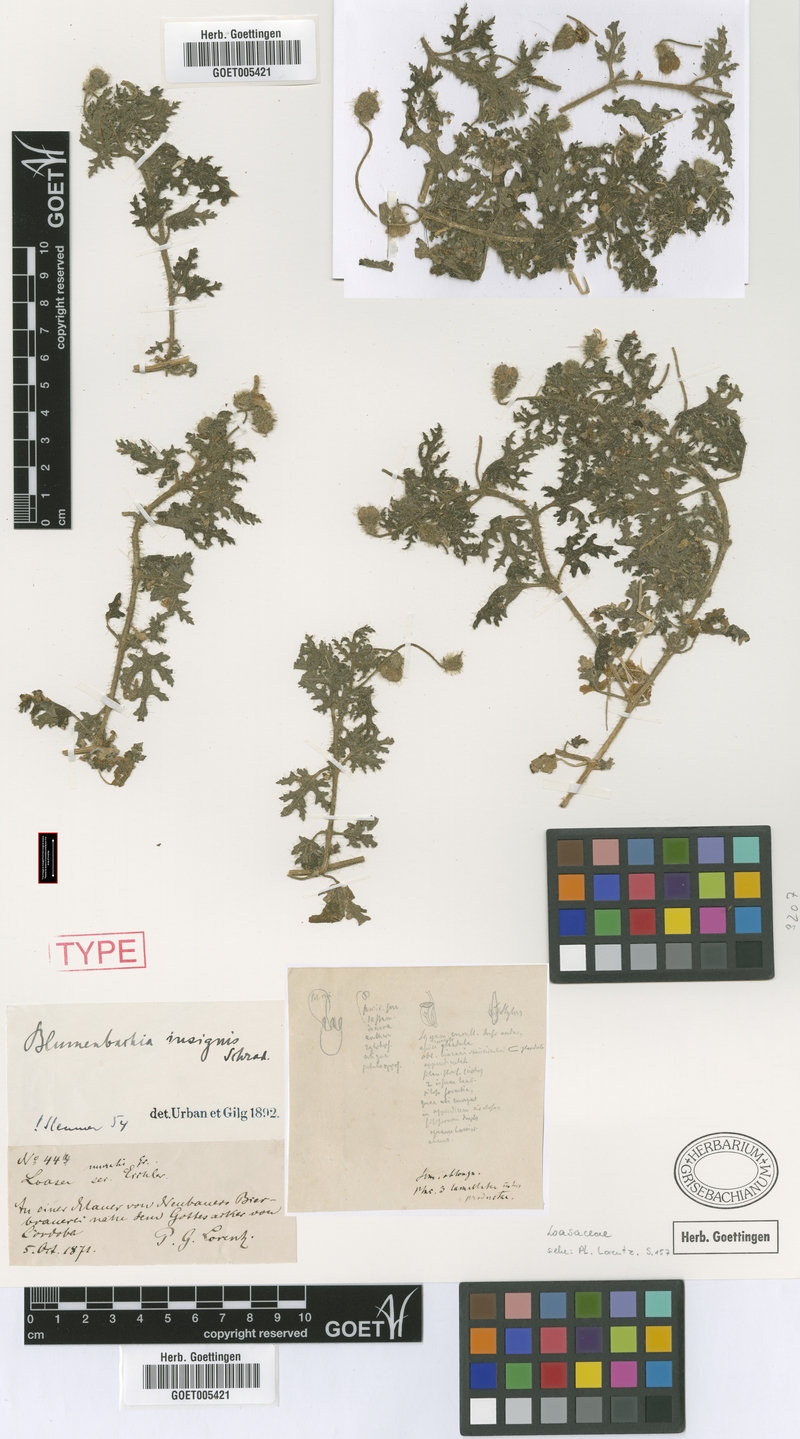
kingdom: Plantae
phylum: Tracheophyta
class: Magnoliopsida
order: Cornales
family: Loasaceae
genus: Blumenbachia
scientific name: Blumenbachia insignis
